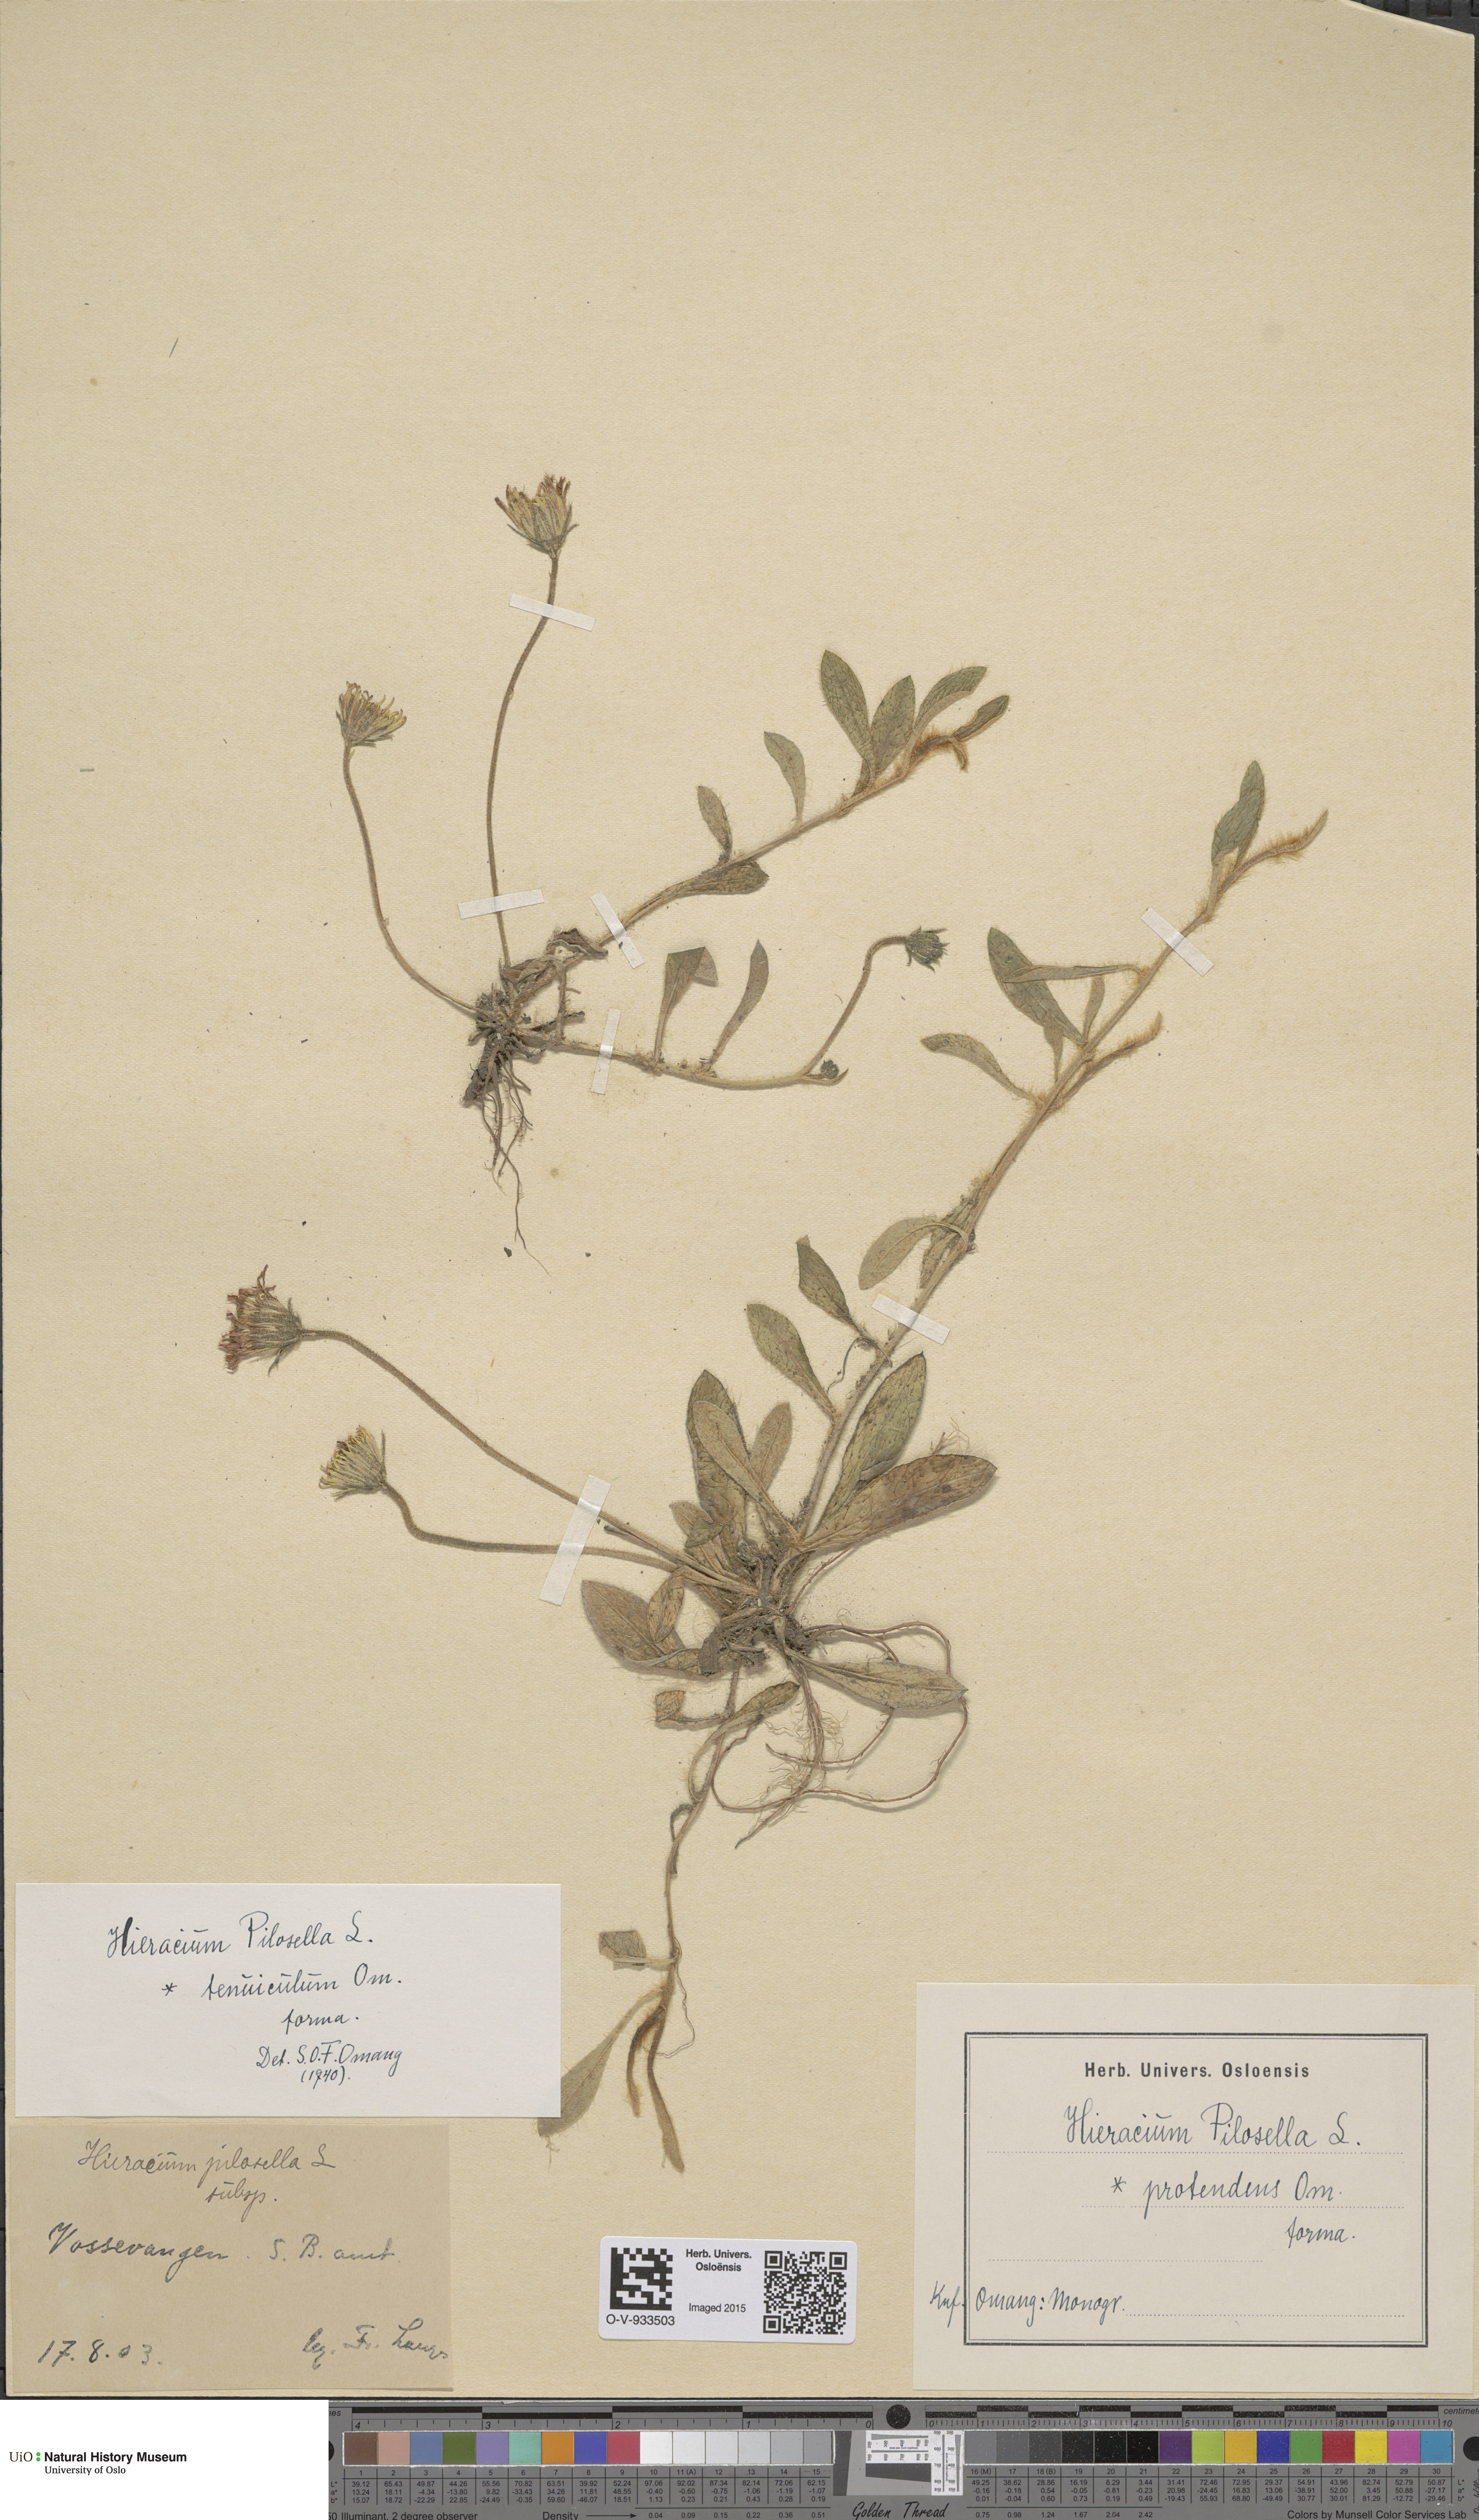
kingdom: Plantae
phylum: Tracheophyta
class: Magnoliopsida
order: Asterales
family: Asteraceae
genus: Pilosella
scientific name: Pilosella officinarum
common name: Mouse-ear hawkweed
